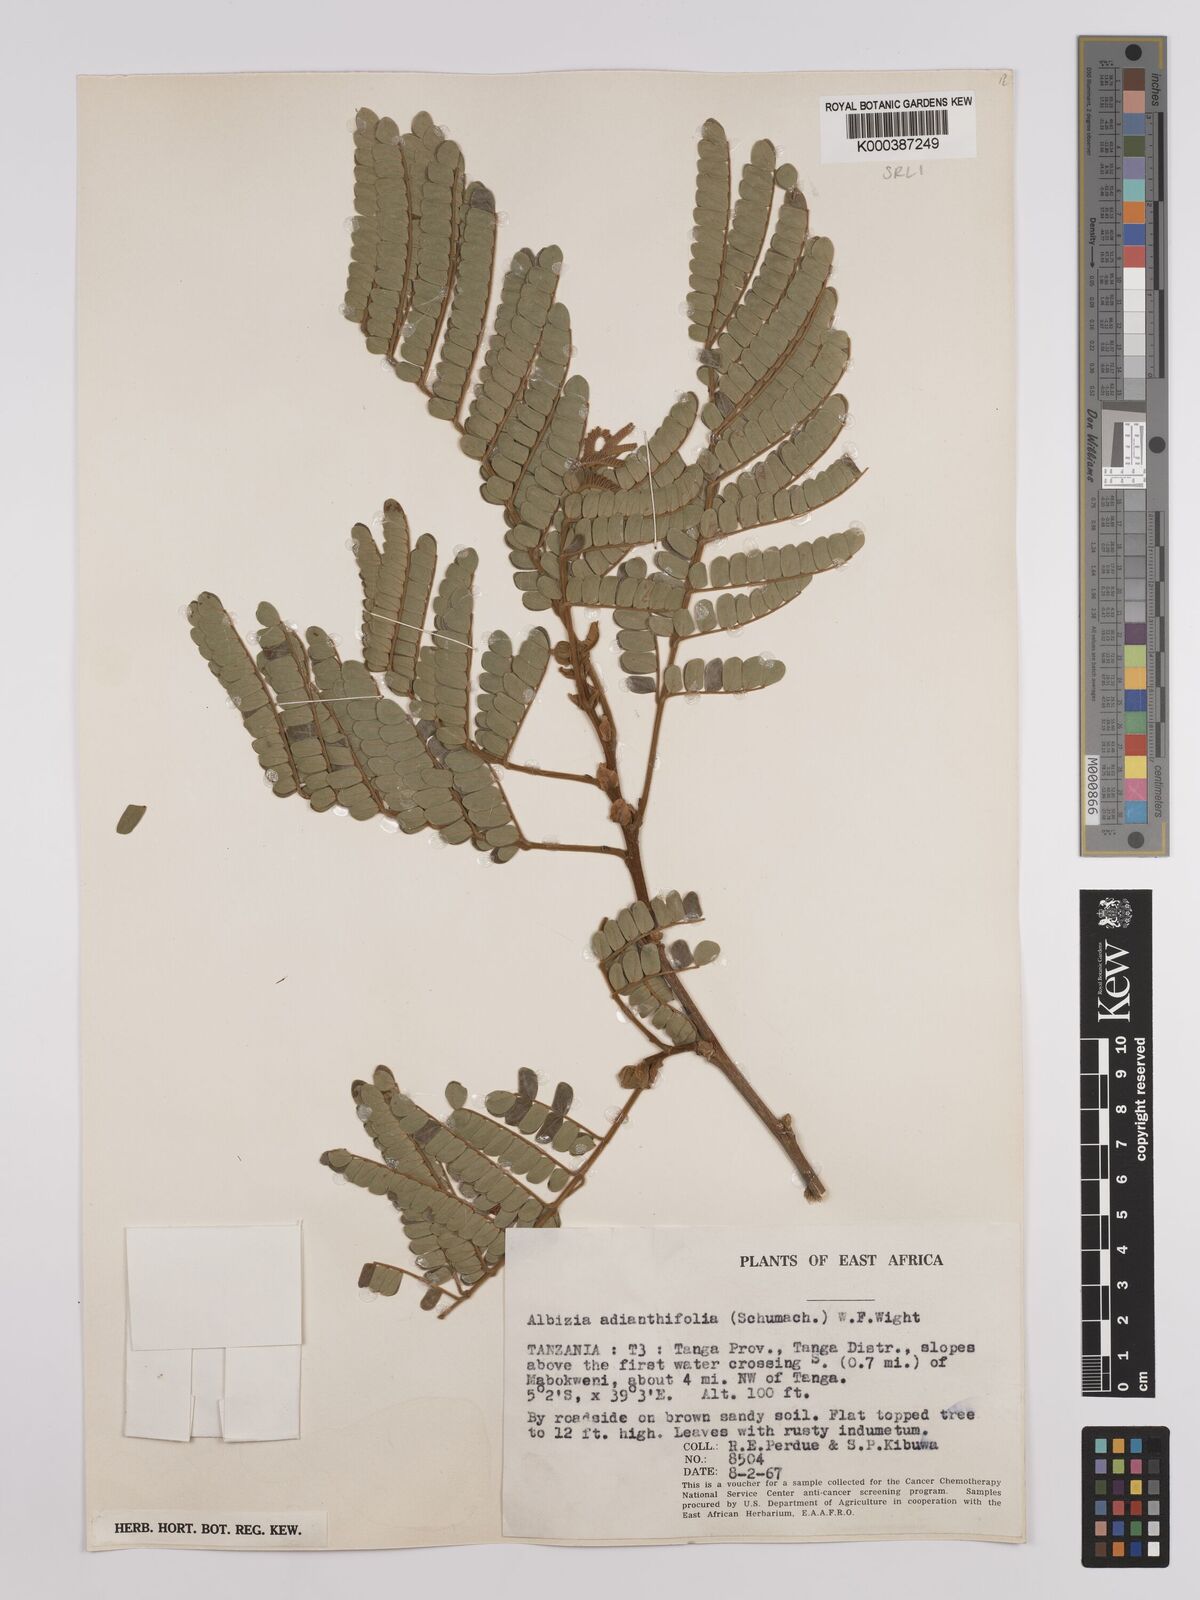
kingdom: Plantae
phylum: Tracheophyta
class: Magnoliopsida
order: Fabales
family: Fabaceae
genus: Albizia
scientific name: Albizia adianthifolia
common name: West african albizia
